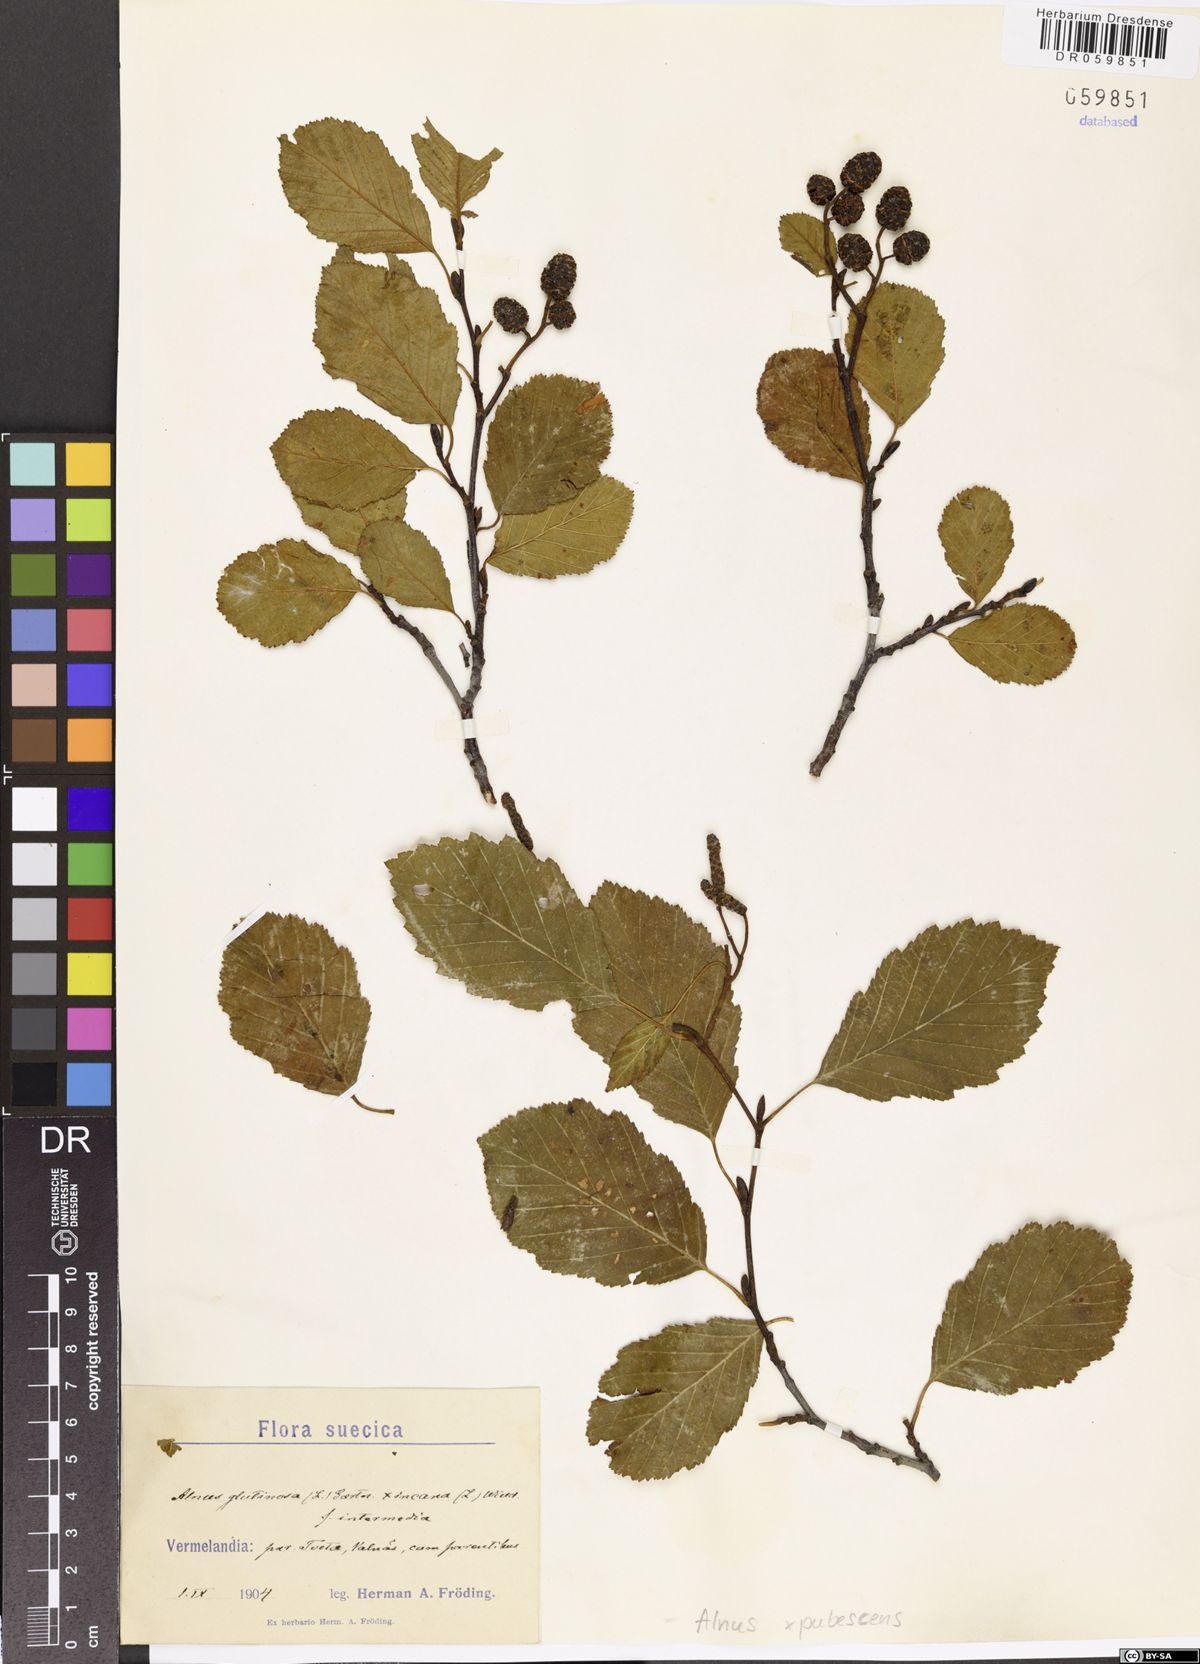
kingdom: Plantae
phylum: Tracheophyta
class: Magnoliopsida
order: Fagales
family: Betulaceae
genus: Alnus
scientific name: Alnus pubescens
